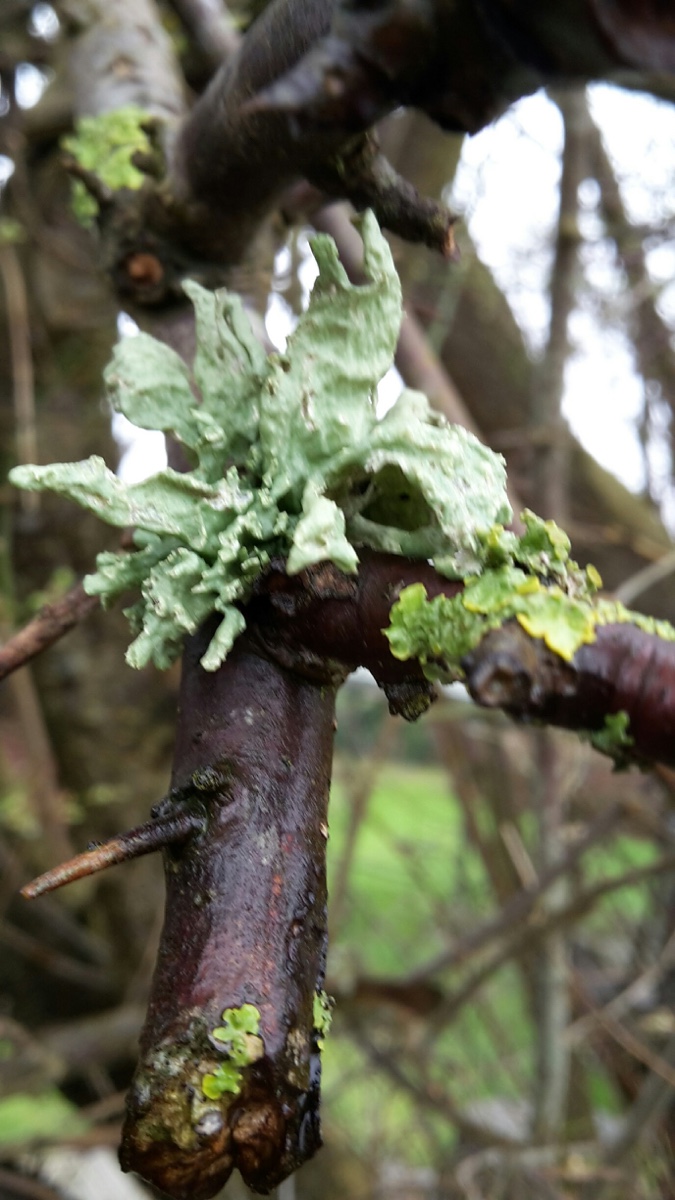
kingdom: Fungi
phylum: Ascomycota
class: Lecanoromycetes
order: Lecanorales
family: Ramalinaceae
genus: Ramalina
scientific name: Ramalina
